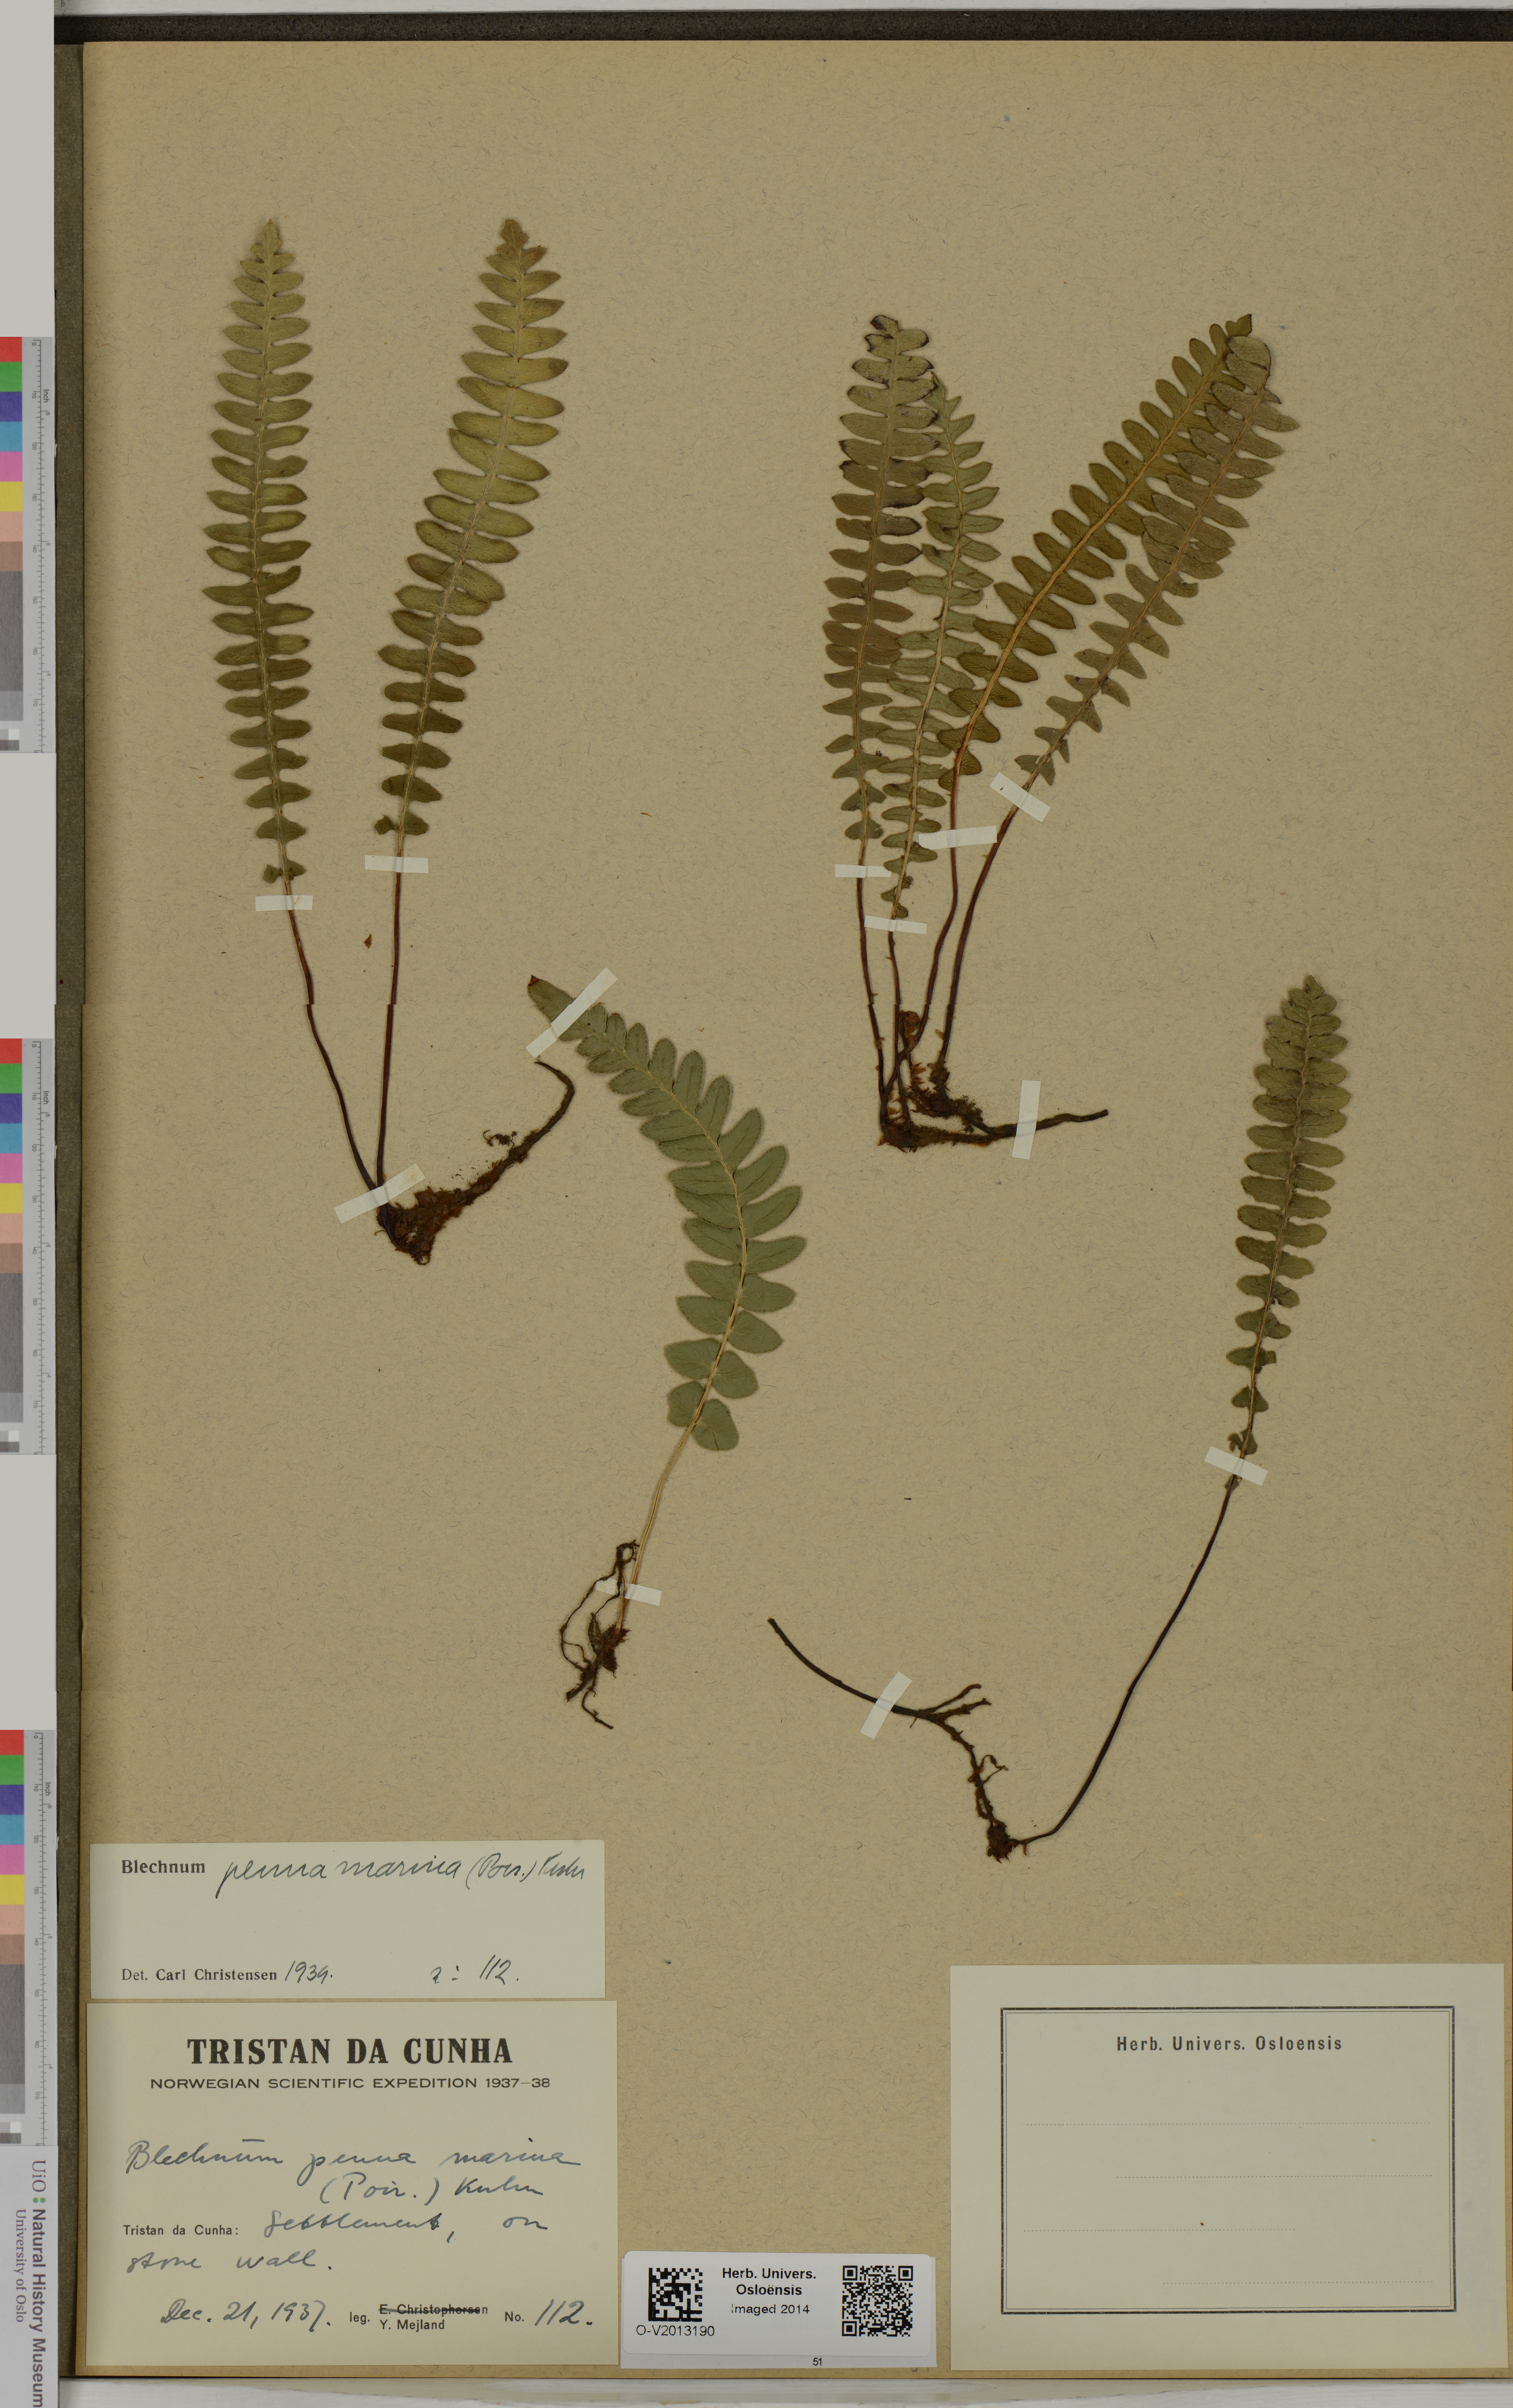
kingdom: Plantae
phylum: Tracheophyta
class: Polypodiopsida
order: Polypodiales
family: Blechnaceae
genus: Austroblechnum
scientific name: Austroblechnum penna-marina
